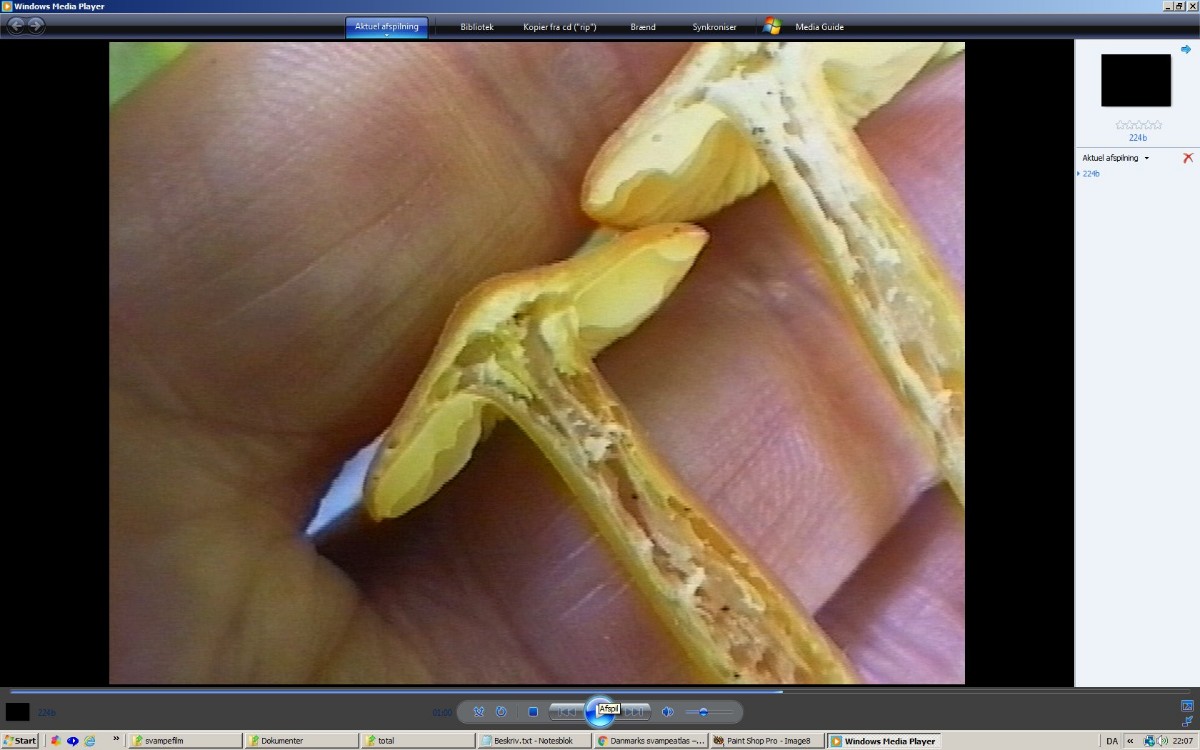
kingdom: Fungi
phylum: Basidiomycota
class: Agaricomycetes
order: Agaricales
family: Hygrophoraceae
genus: Hygrocybe
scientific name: Hygrocybe chlorophana
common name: gul vokshat
